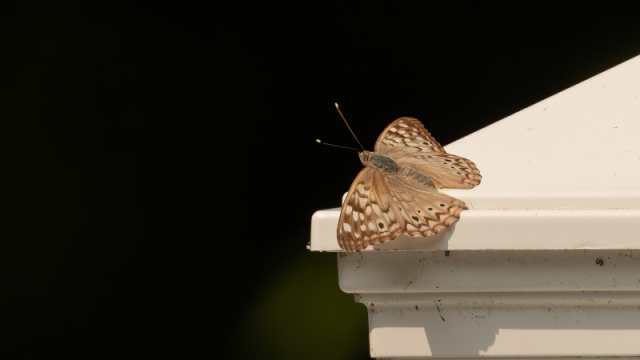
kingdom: Animalia
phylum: Arthropoda
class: Insecta
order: Lepidoptera
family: Nymphalidae
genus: Asterocampa
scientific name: Asterocampa celtis
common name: Hackberry Emperor
